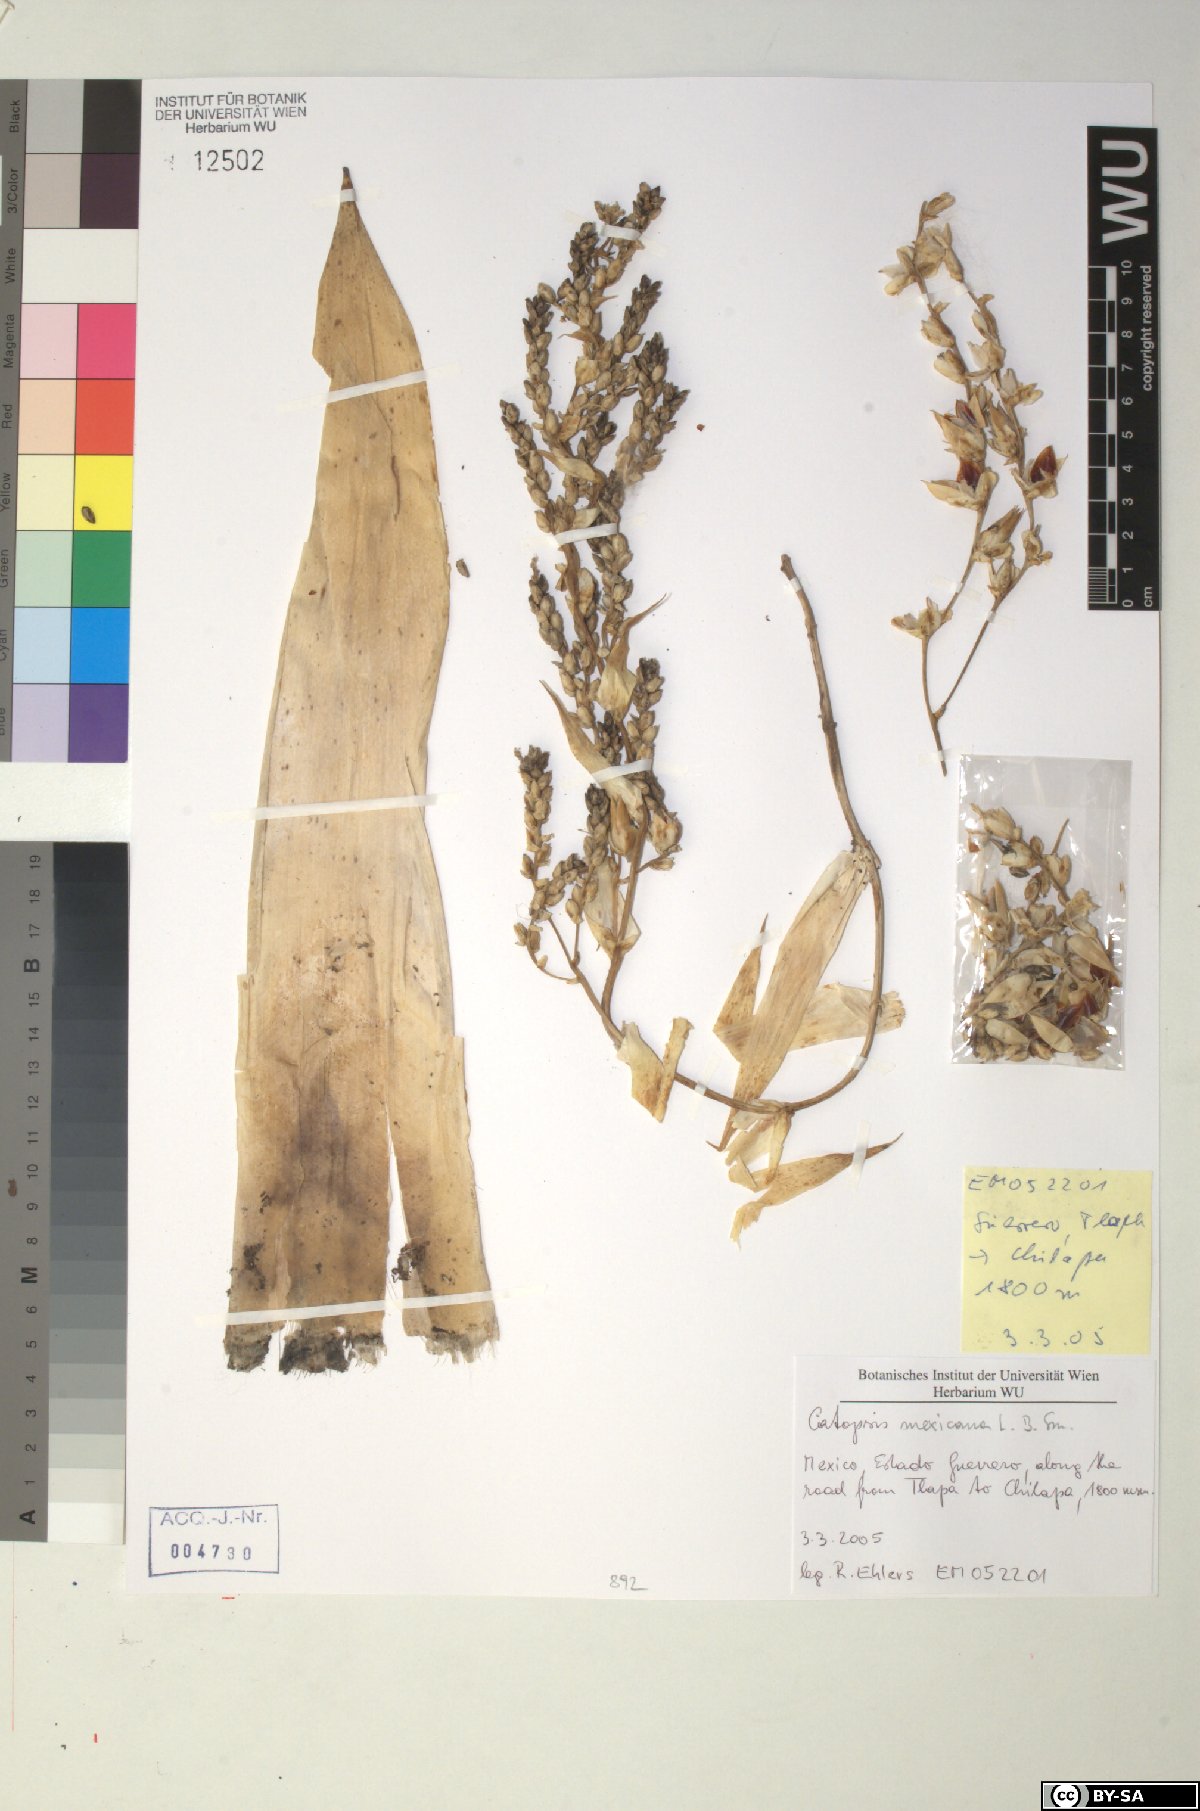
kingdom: Plantae
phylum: Tracheophyta
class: Liliopsida
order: Poales
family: Bromeliaceae
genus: Catopsis
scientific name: Catopsis paniculata
